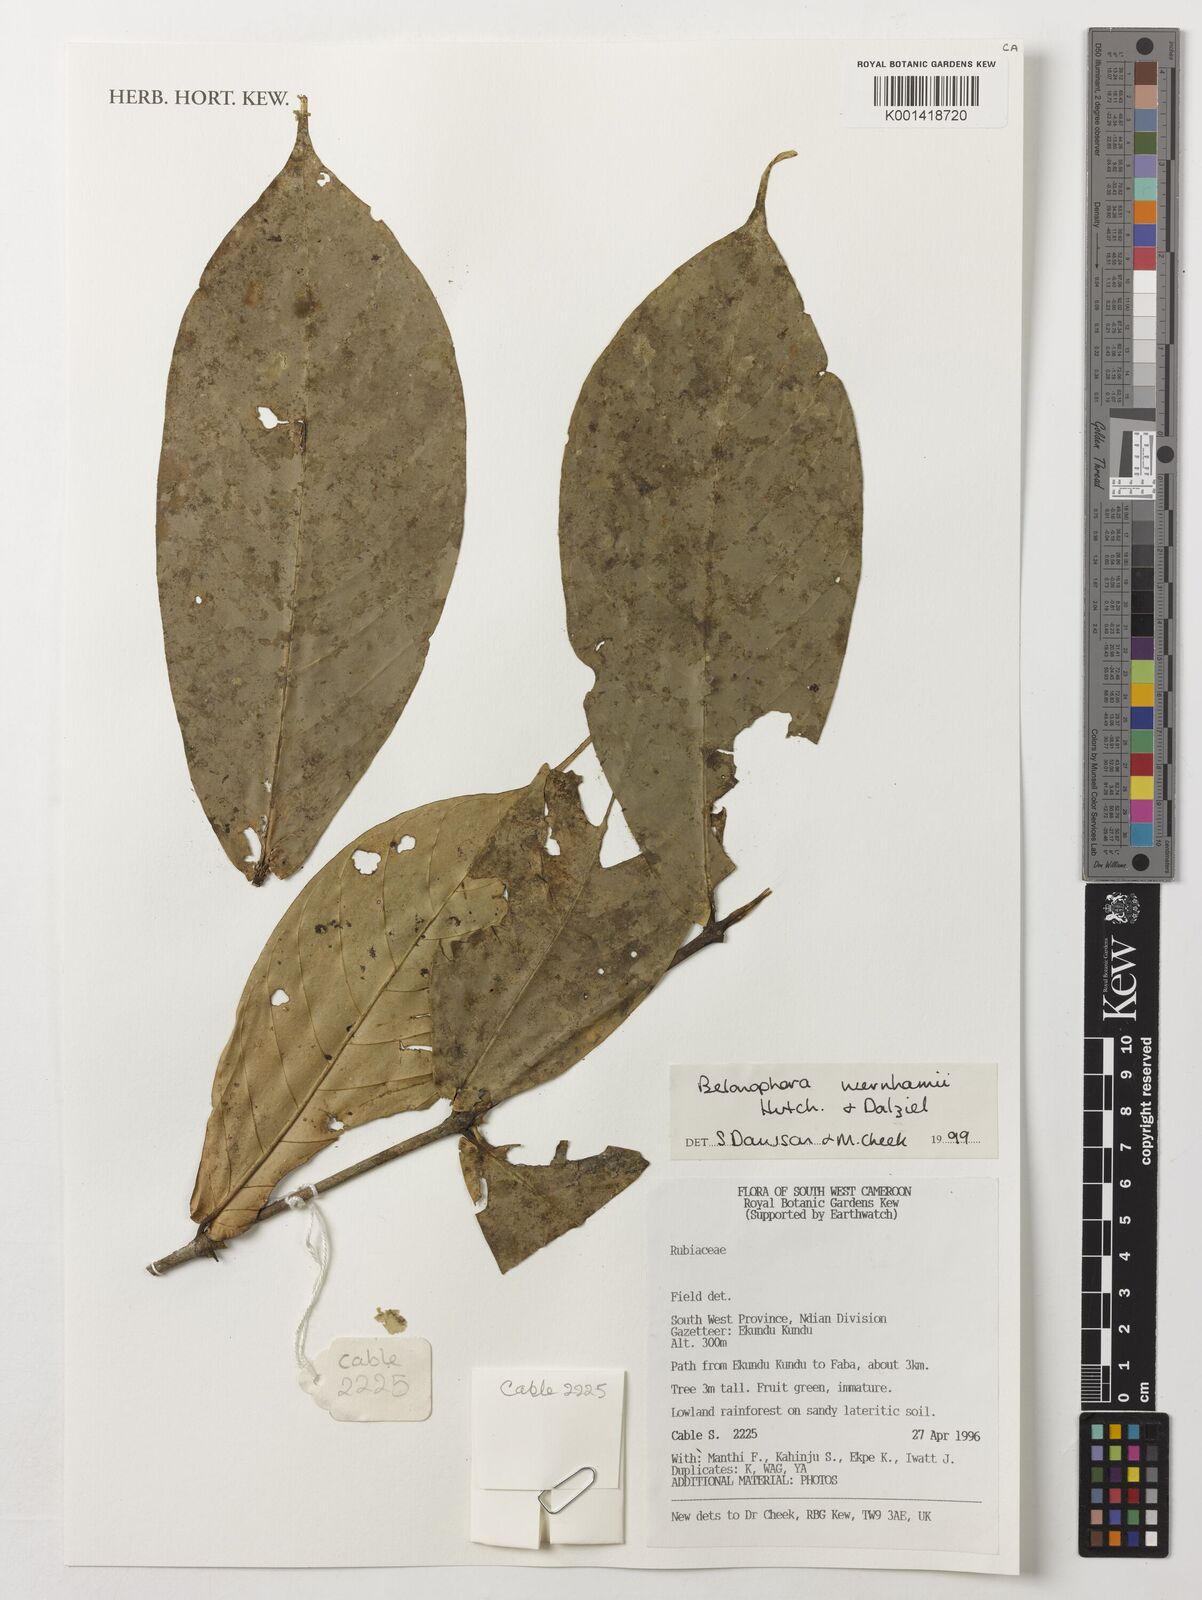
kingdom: Plantae
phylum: Tracheophyta
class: Magnoliopsida
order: Gentianales
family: Rubiaceae
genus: Belonophora
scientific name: Belonophora wernhamii
